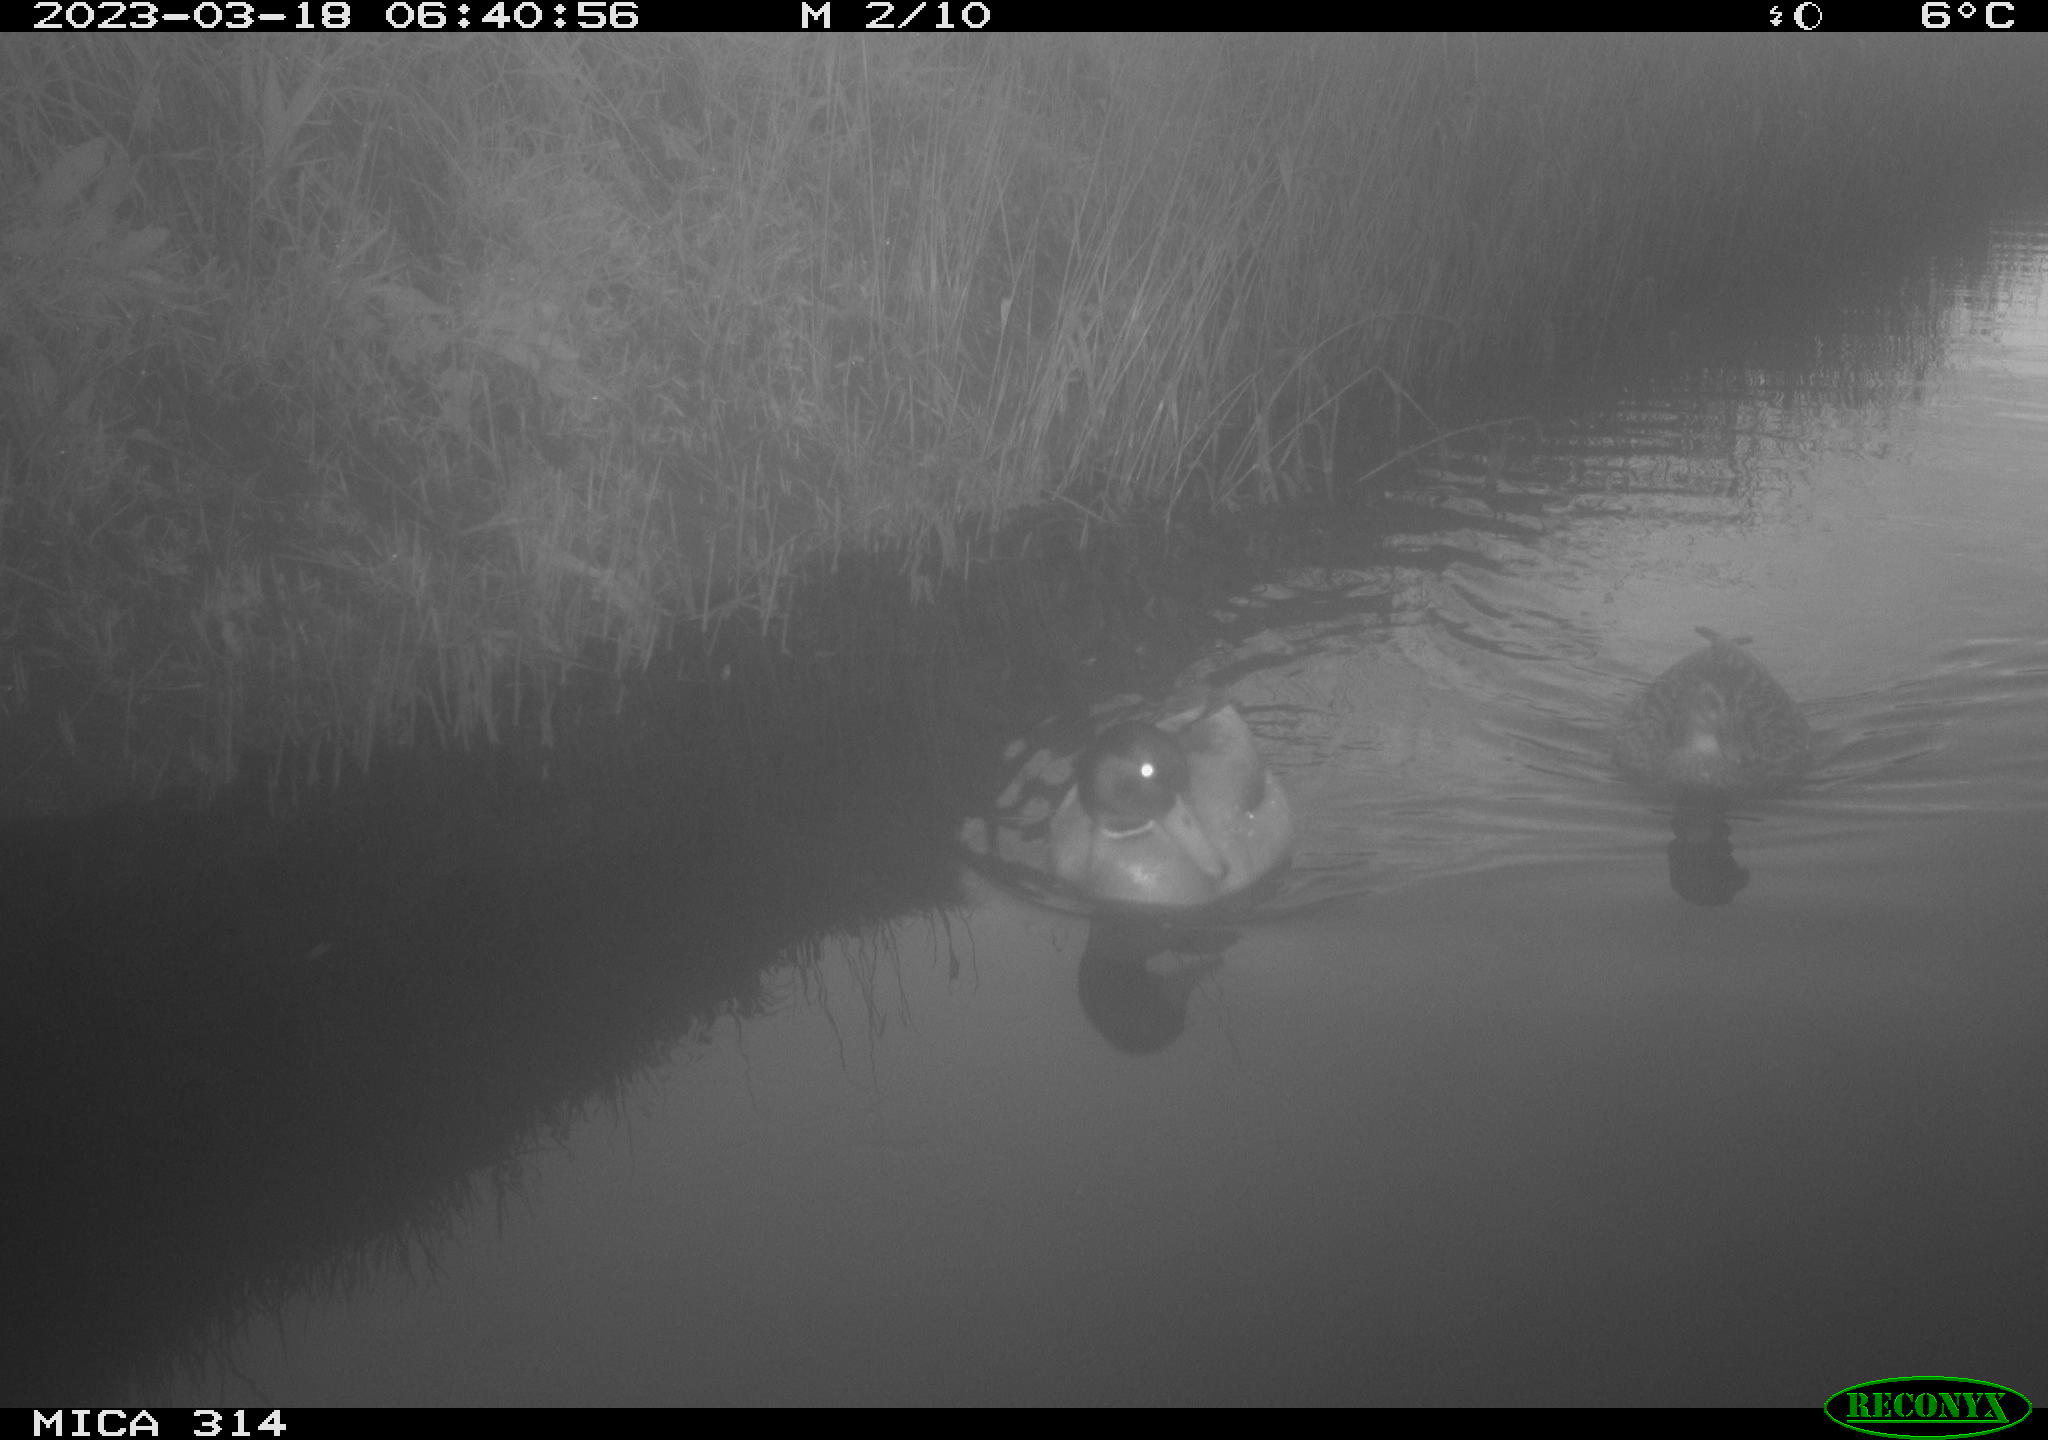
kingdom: Animalia
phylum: Chordata
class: Aves
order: Anseriformes
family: Anatidae
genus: Anas
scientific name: Anas platyrhynchos
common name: Mallard
